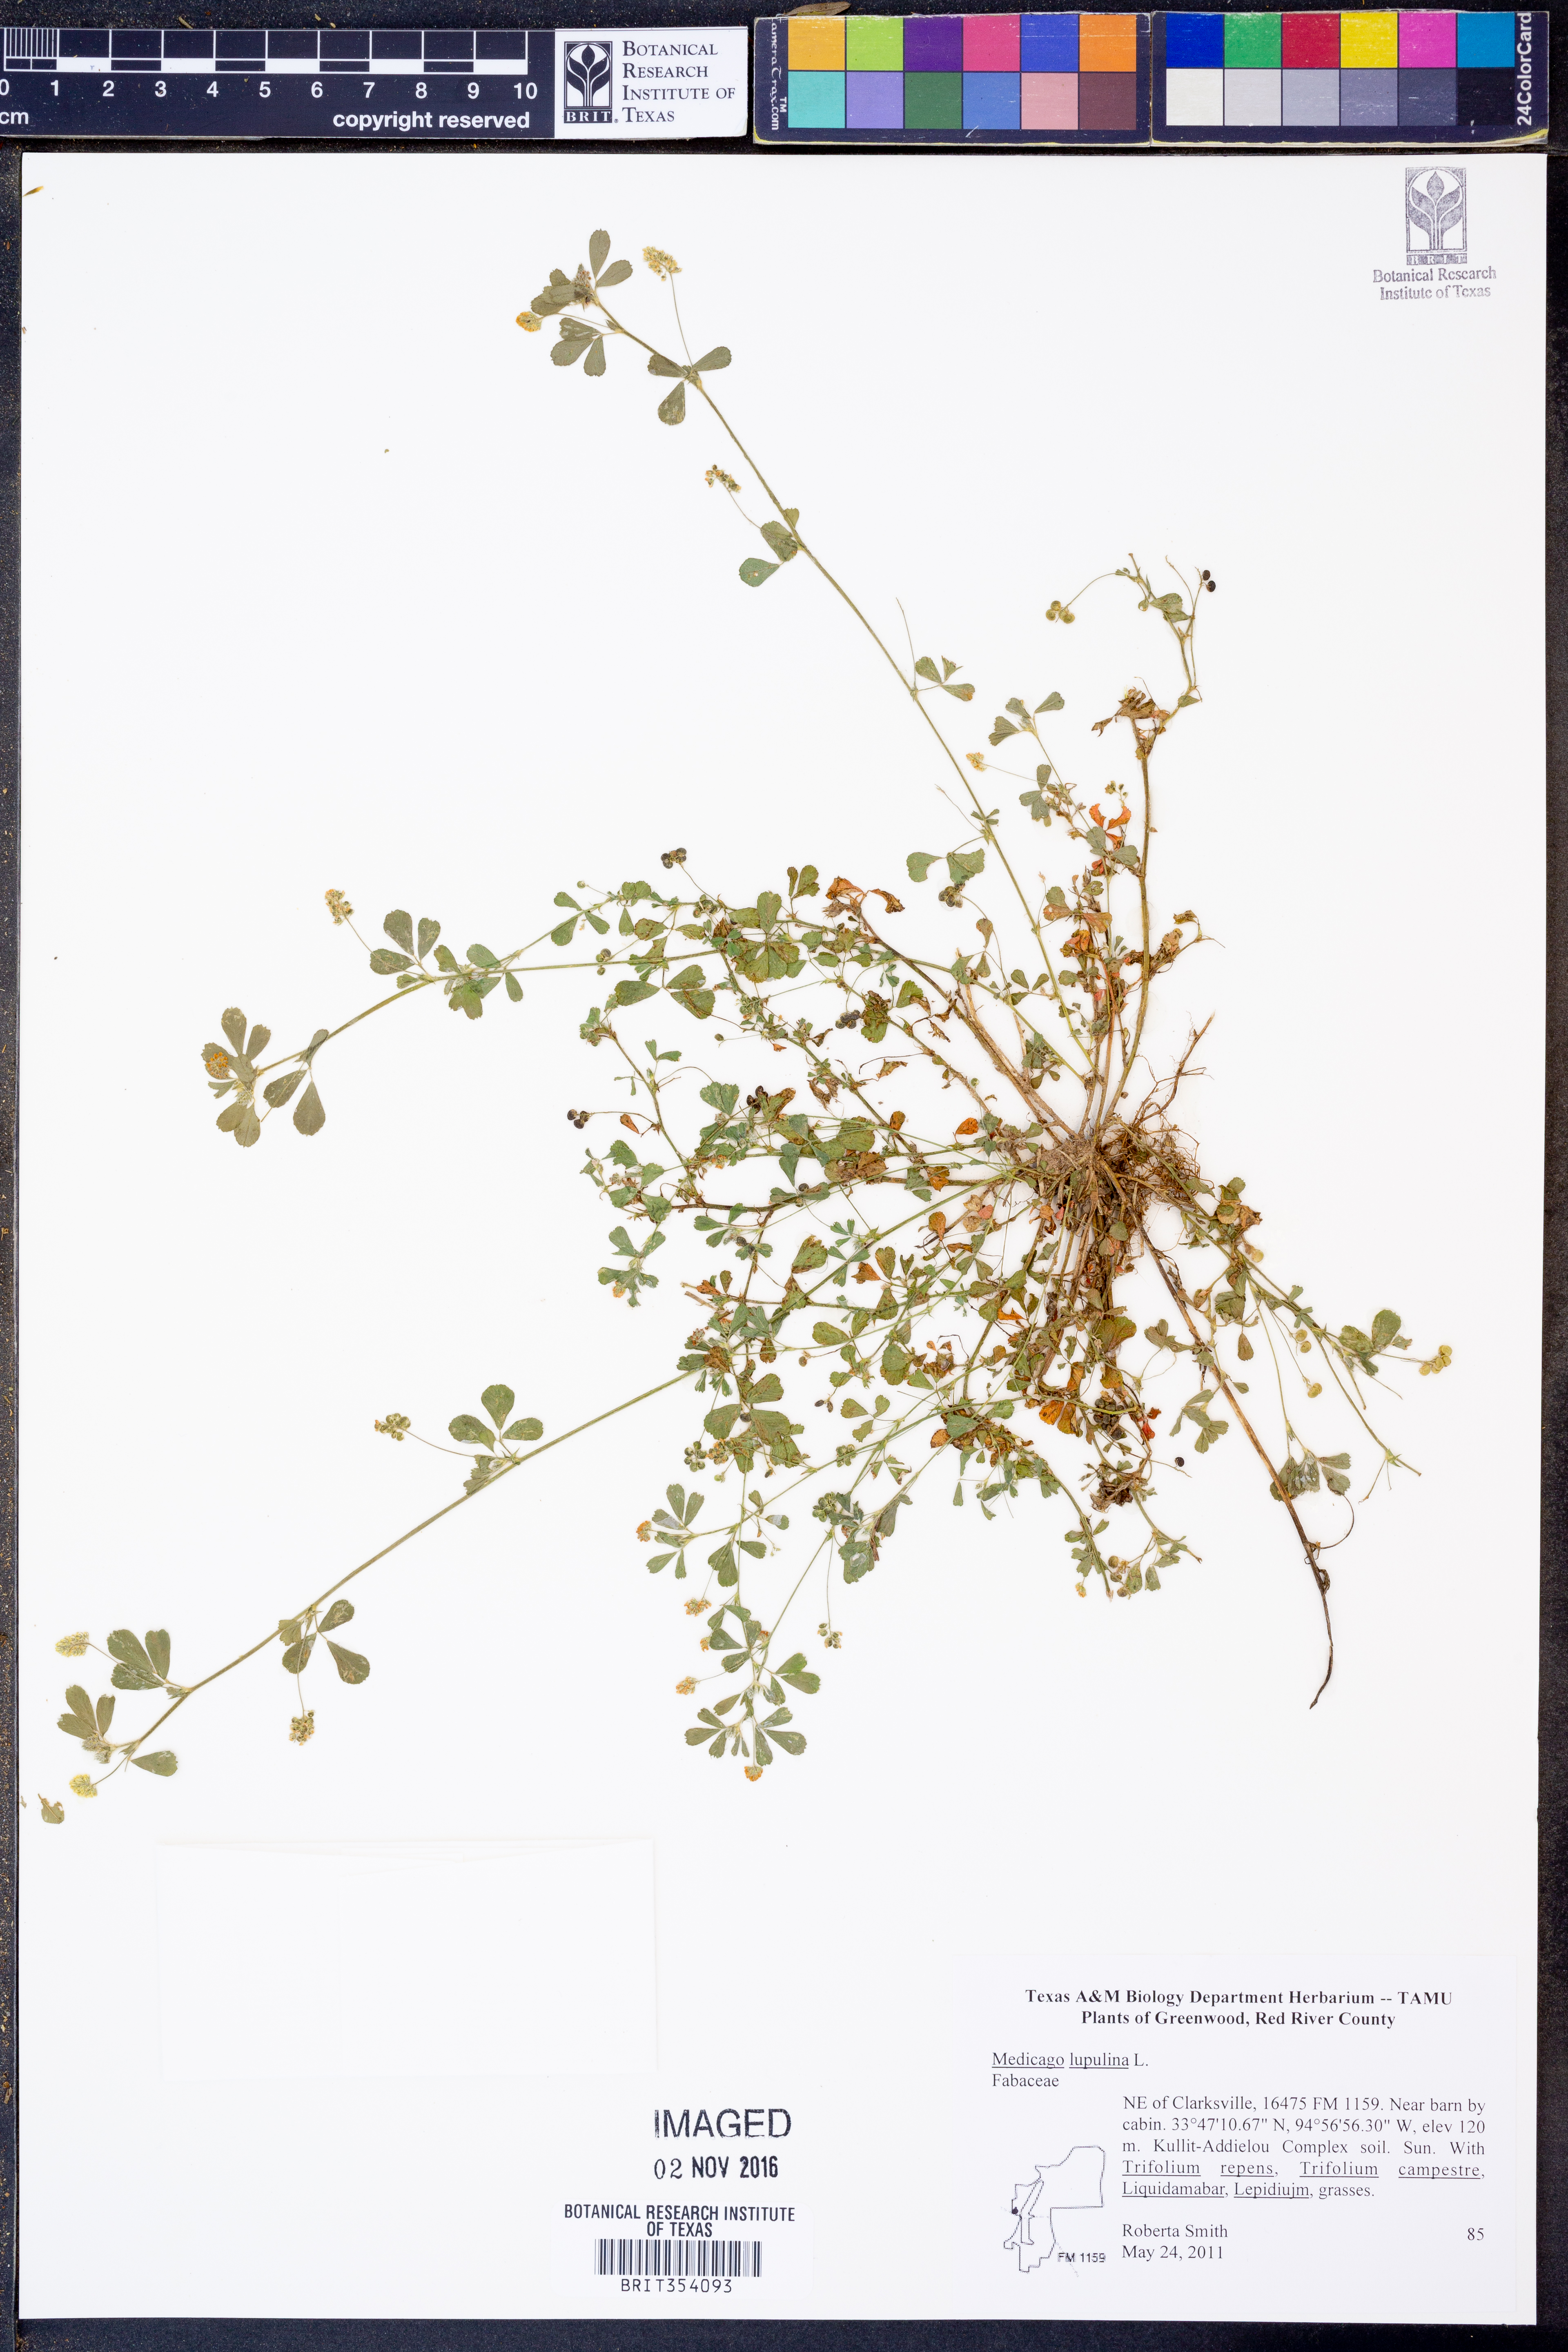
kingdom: Plantae
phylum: Tracheophyta
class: Magnoliopsida
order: Fabales
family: Fabaceae
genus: Medicago
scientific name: Medicago lupulina
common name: Black medick
